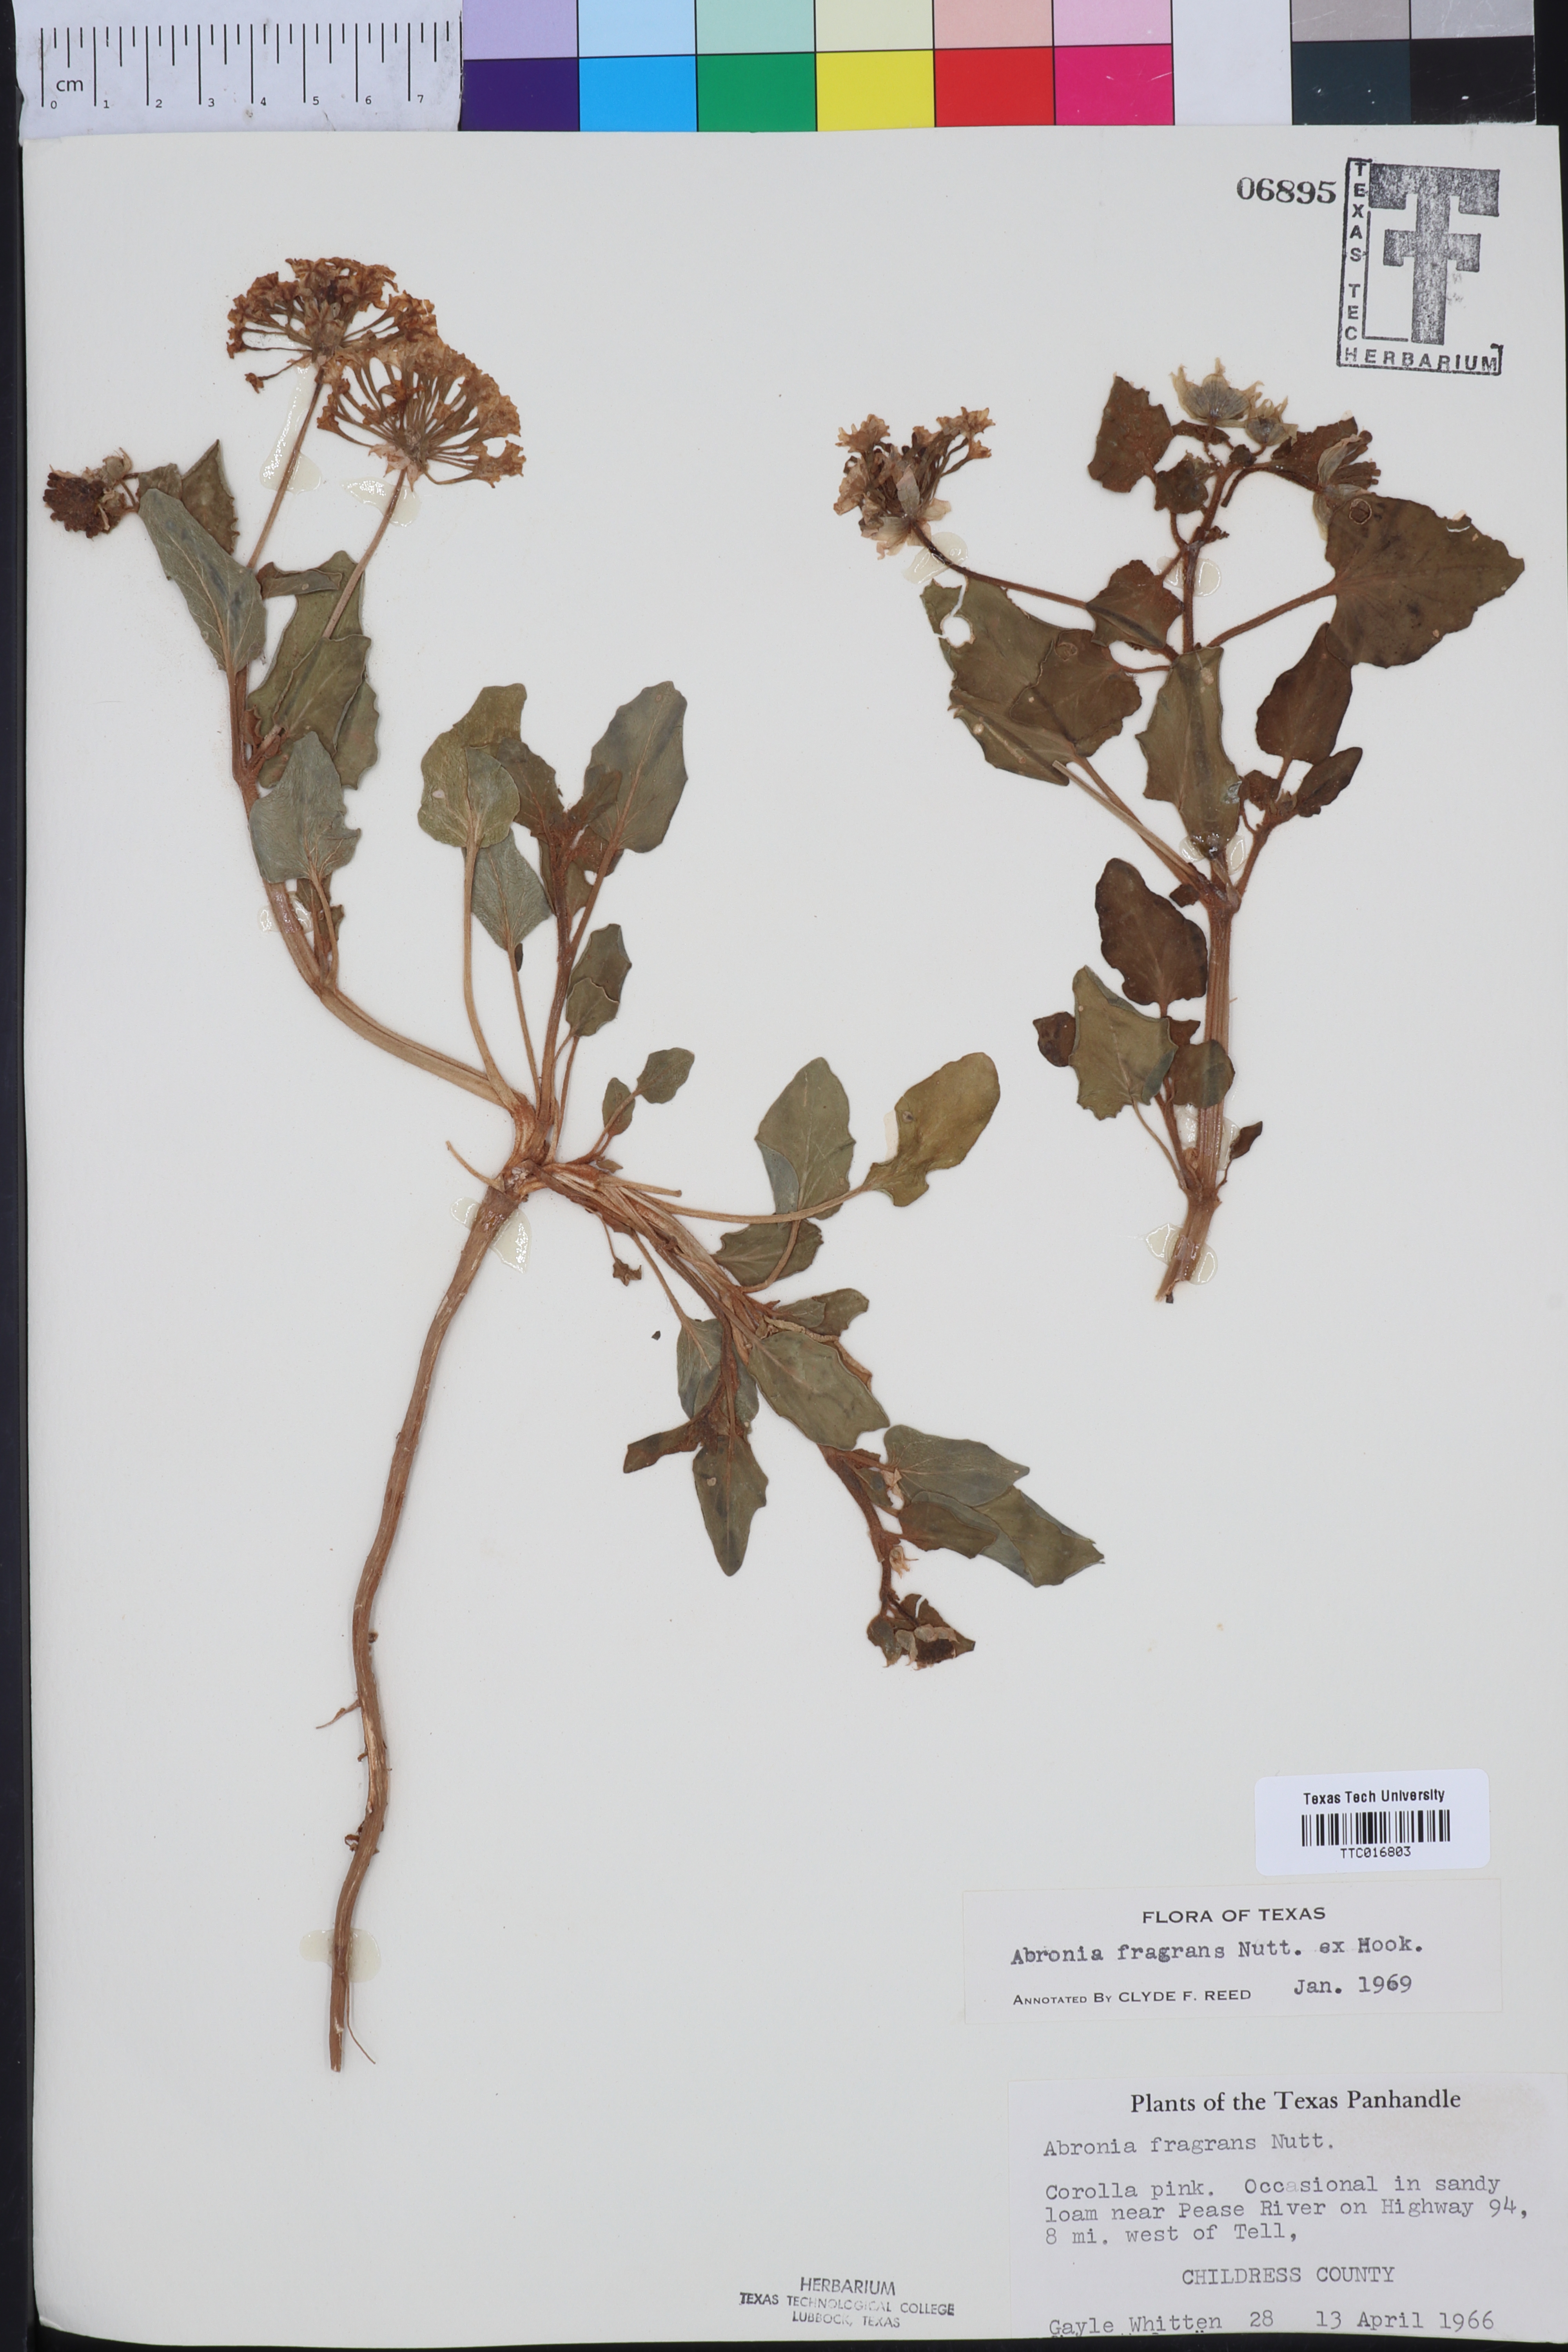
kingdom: Plantae
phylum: Tracheophyta
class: Magnoliopsida
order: Caryophyllales
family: Nyctaginaceae
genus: Abronia
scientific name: Abronia fragrans
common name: Fragrant sand-verbena
